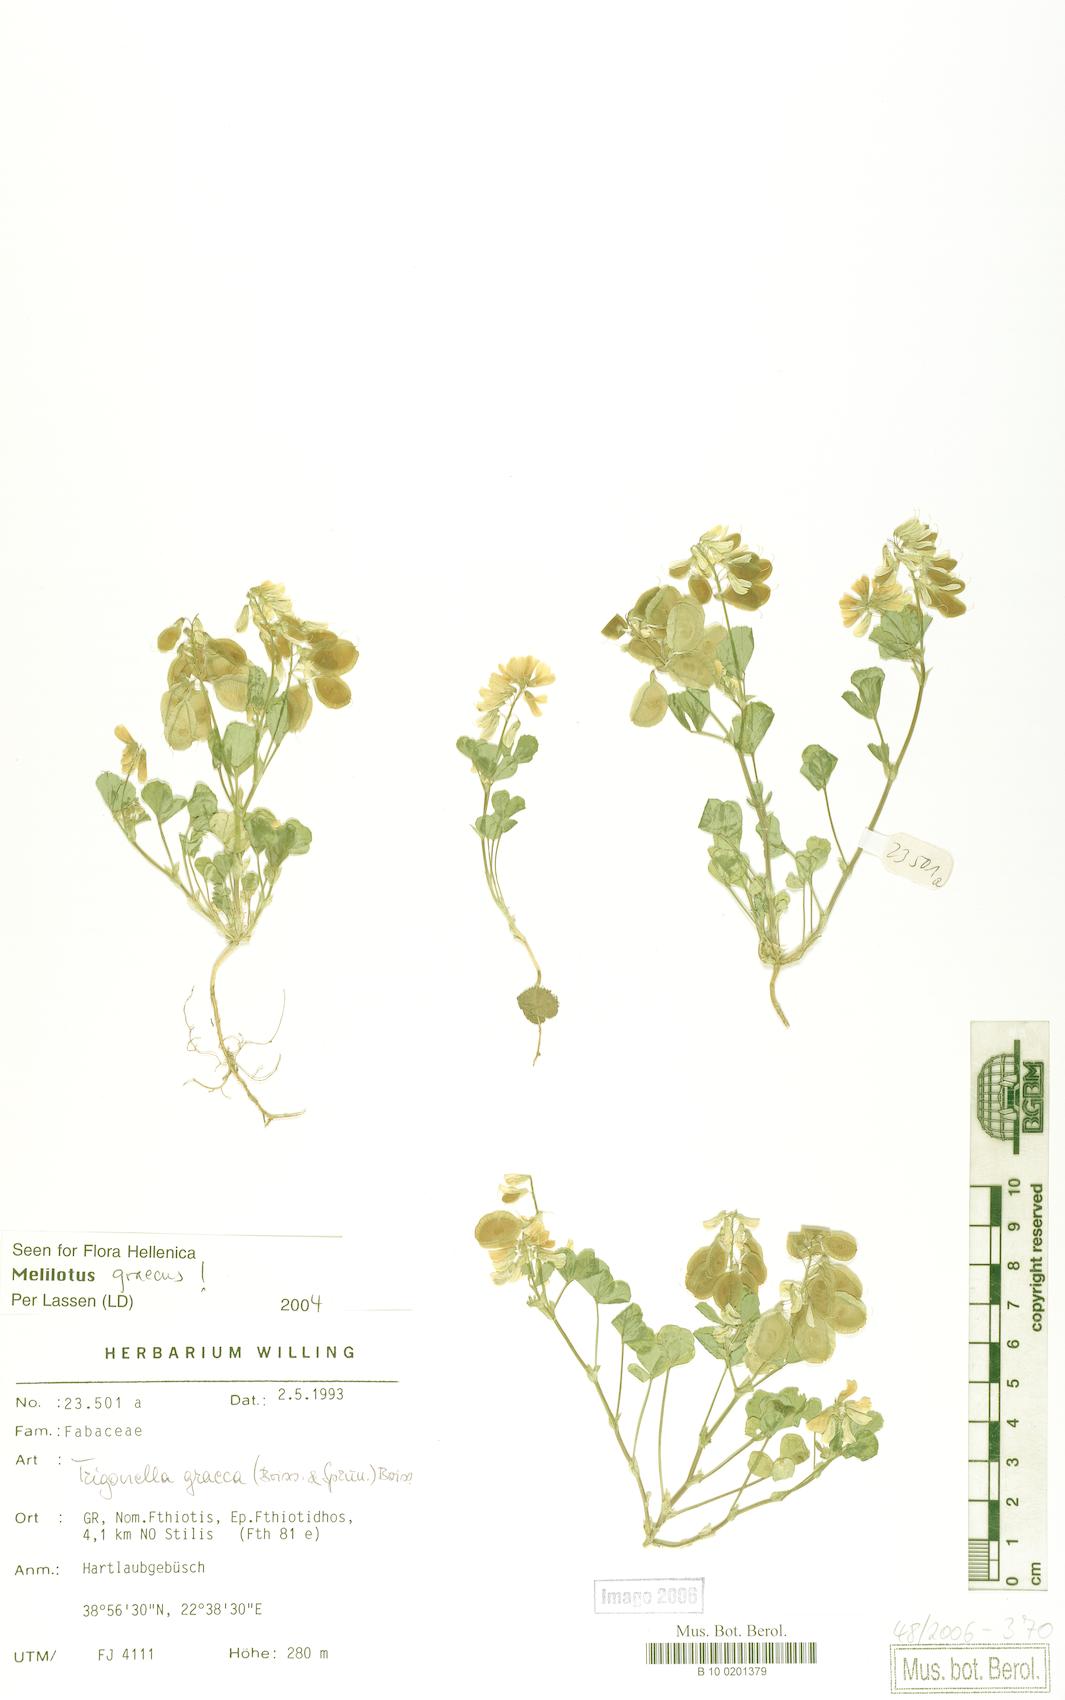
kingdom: Plantae
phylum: Tracheophyta
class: Magnoliopsida
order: Fabales
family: Fabaceae
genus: Trigonella
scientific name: Trigonella graeca
